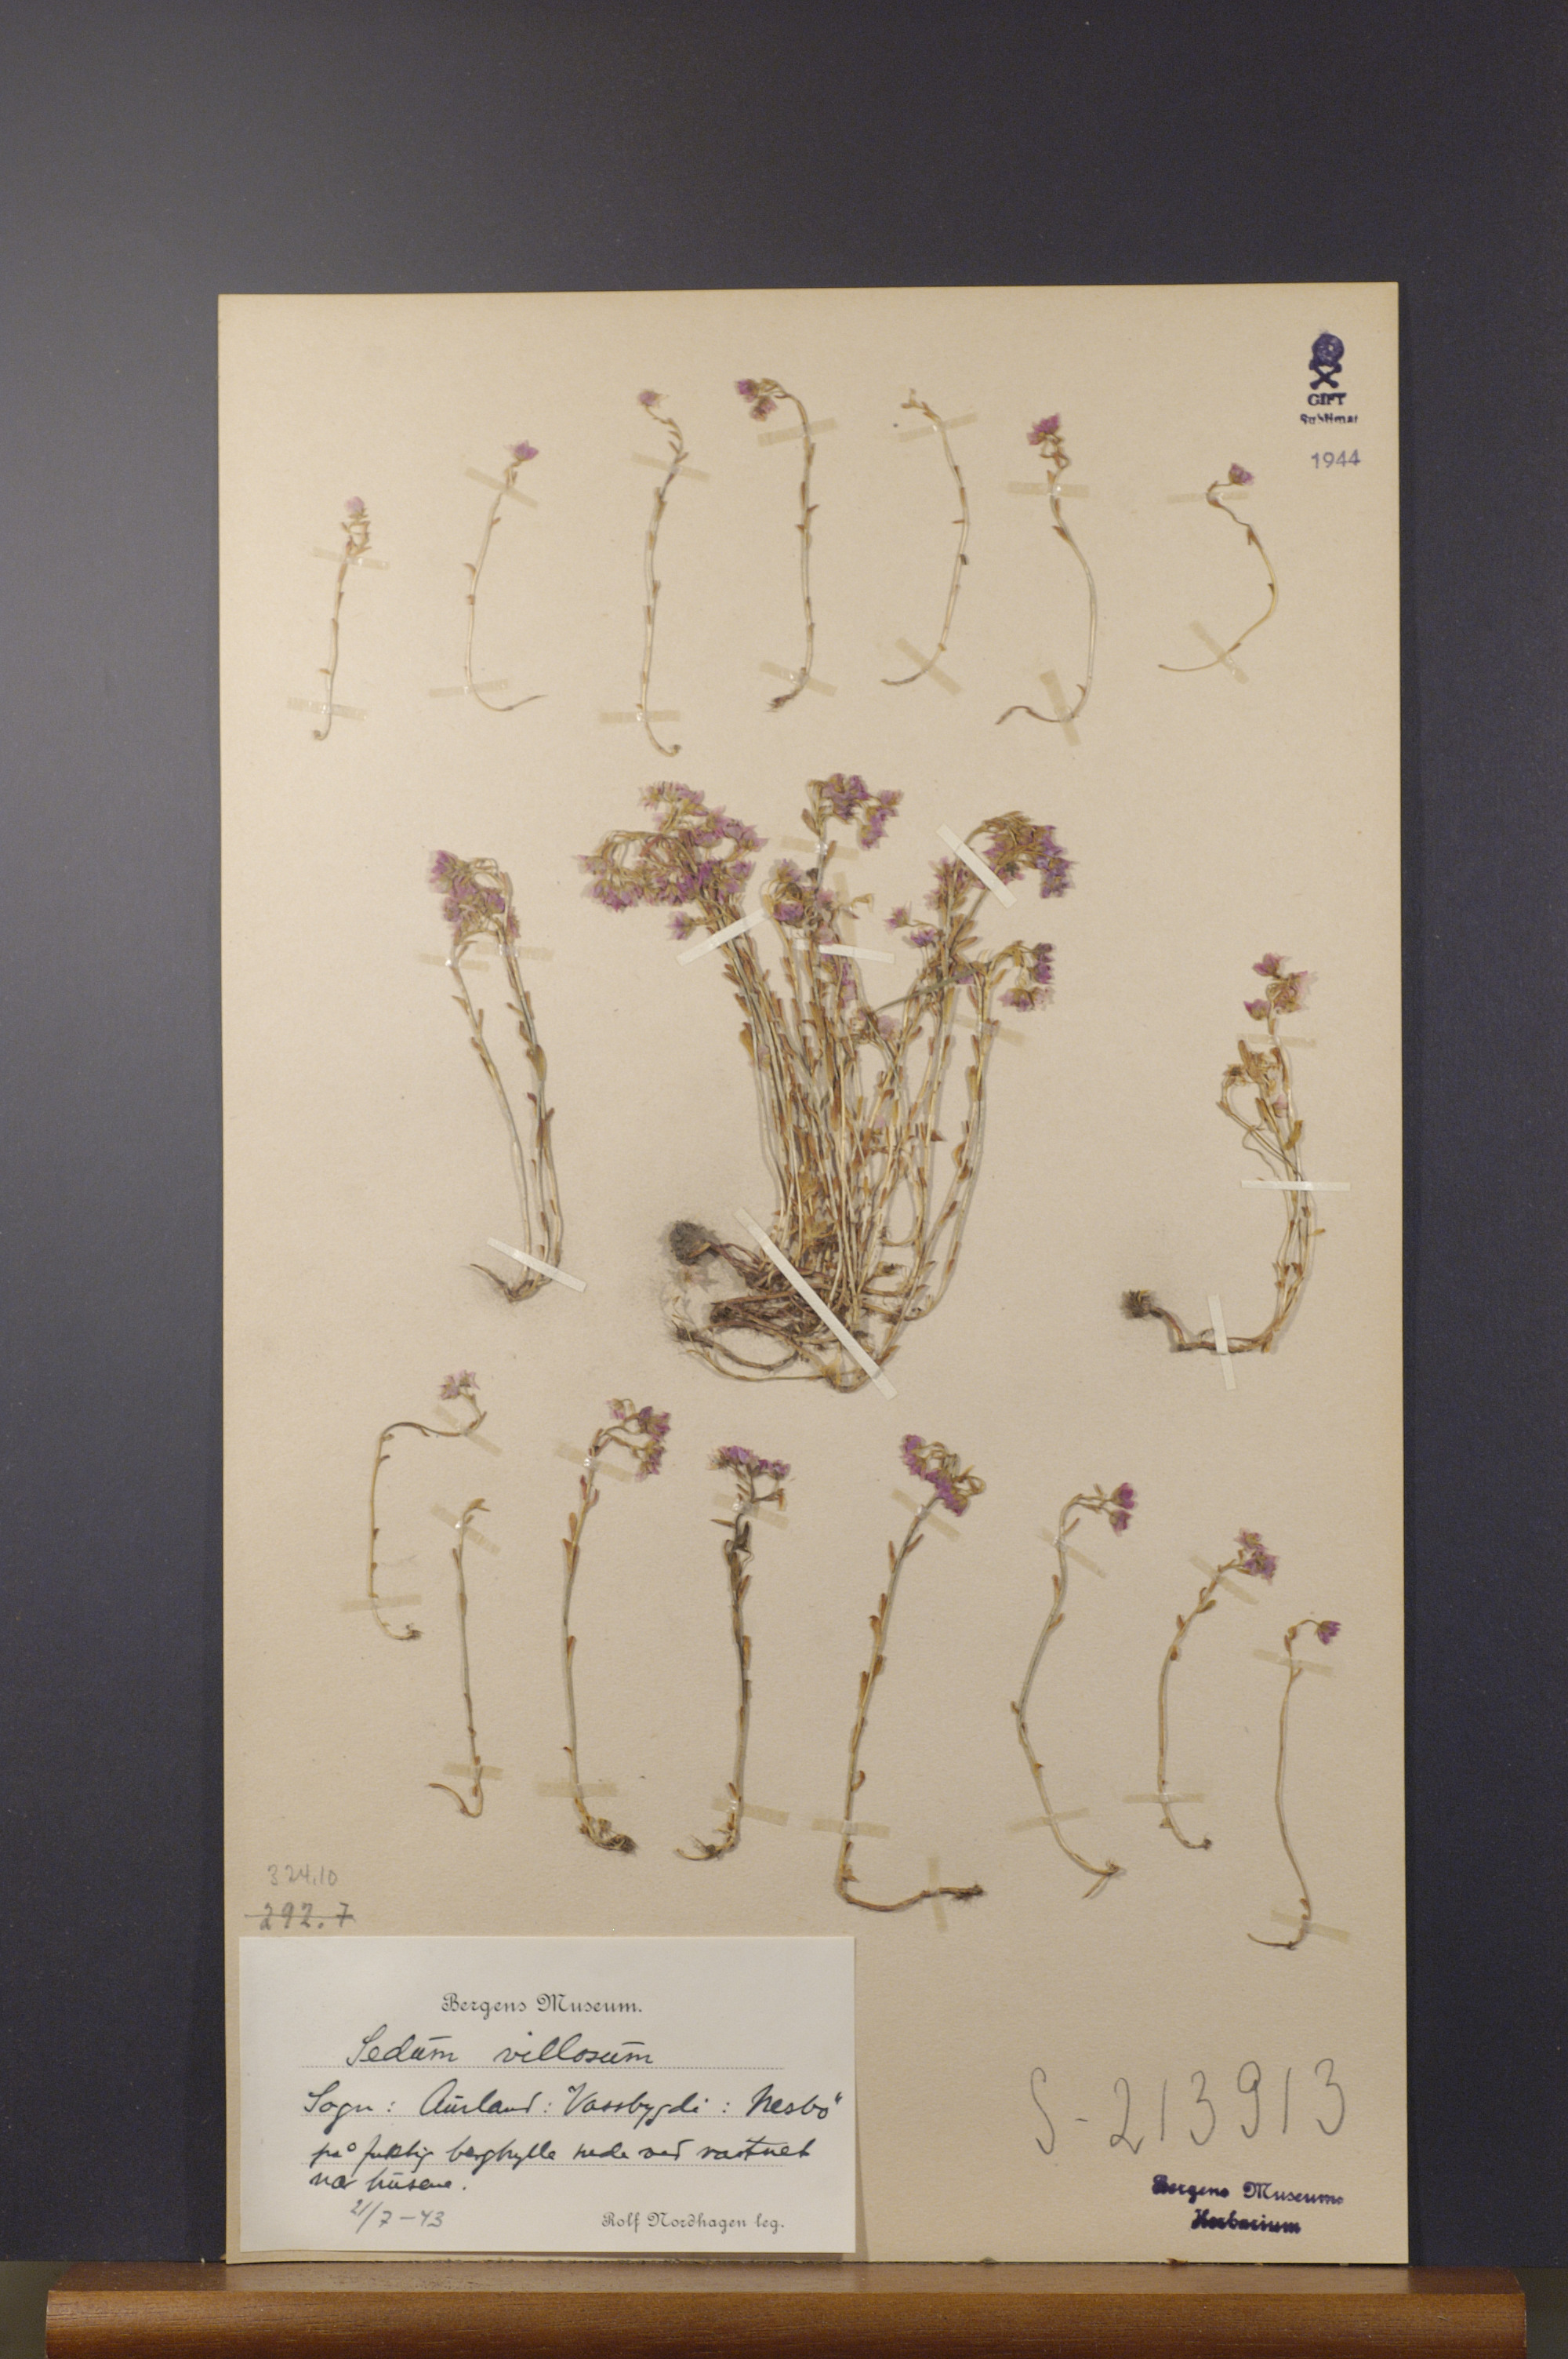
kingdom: Plantae
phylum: Tracheophyta
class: Magnoliopsida
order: Saxifragales
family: Crassulaceae
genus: Sedum
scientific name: Sedum villosum
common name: Hairy stonecrop
